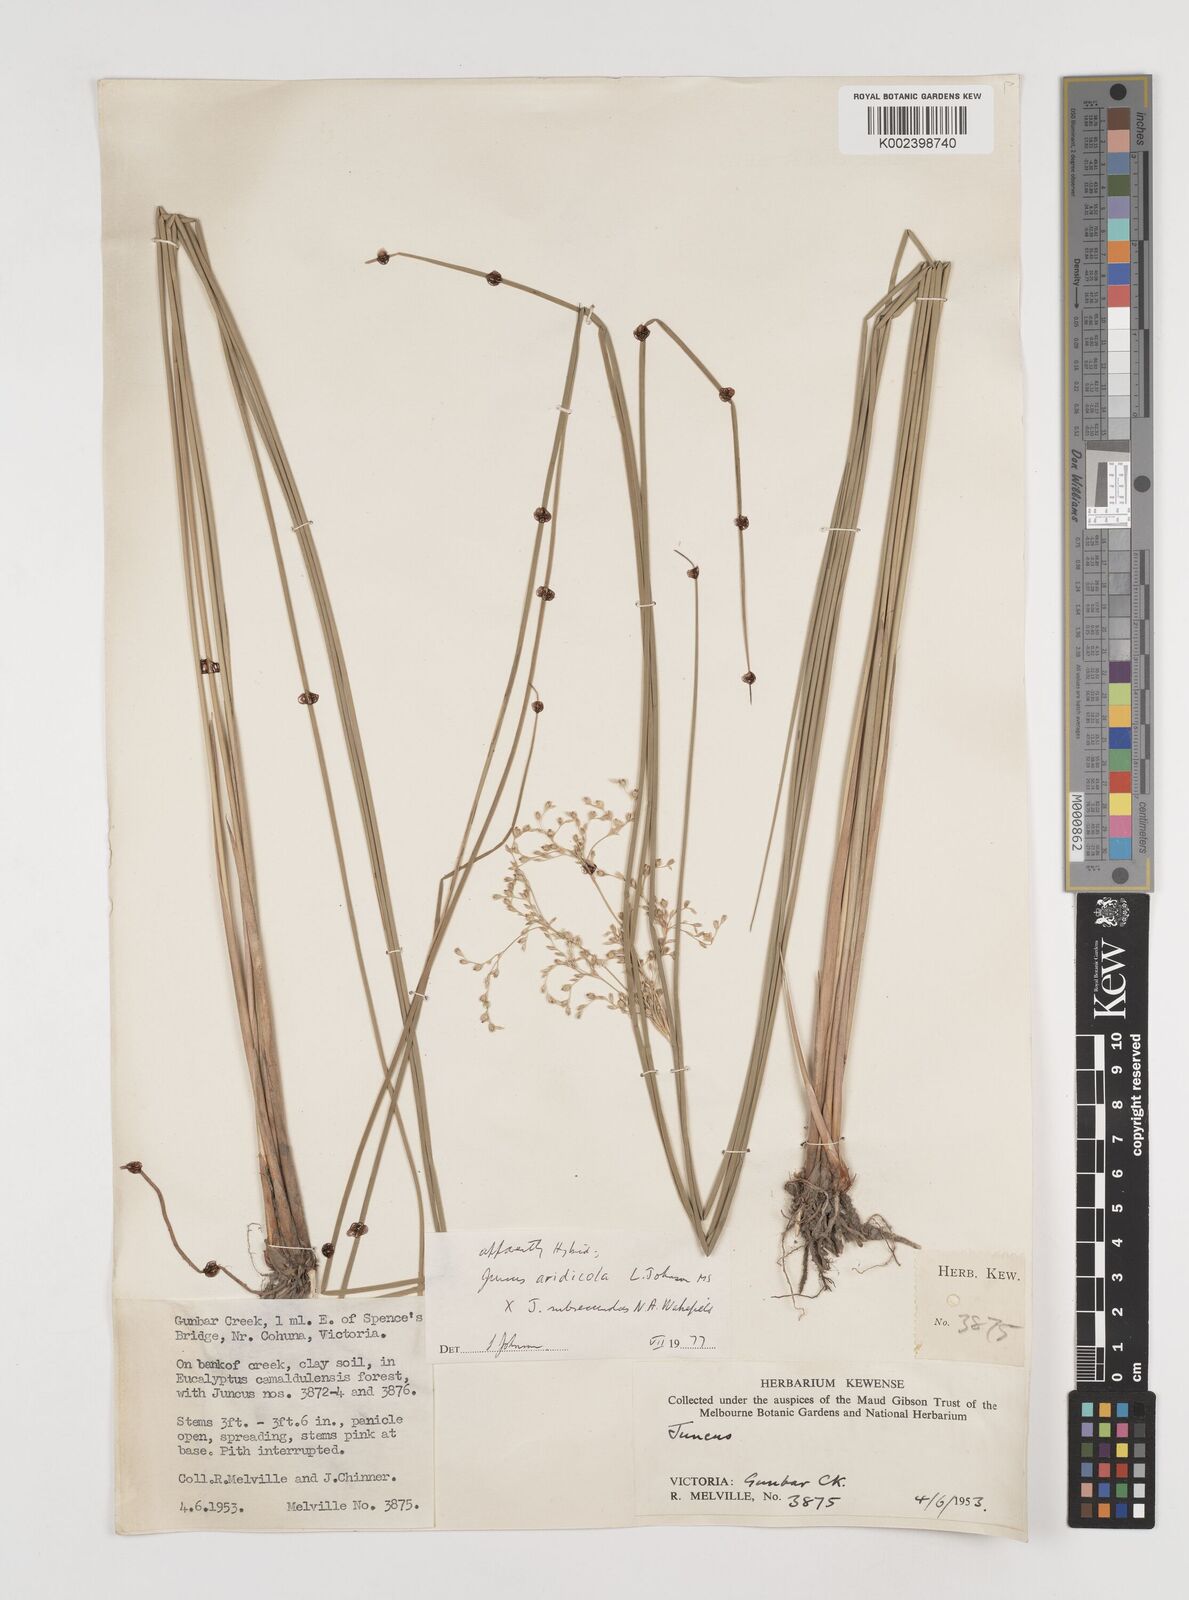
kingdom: Plantae
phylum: Tracheophyta
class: Liliopsida
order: Poales
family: Juncaceae
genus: Juncus
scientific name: Juncus aridicola
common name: Tussock rush
